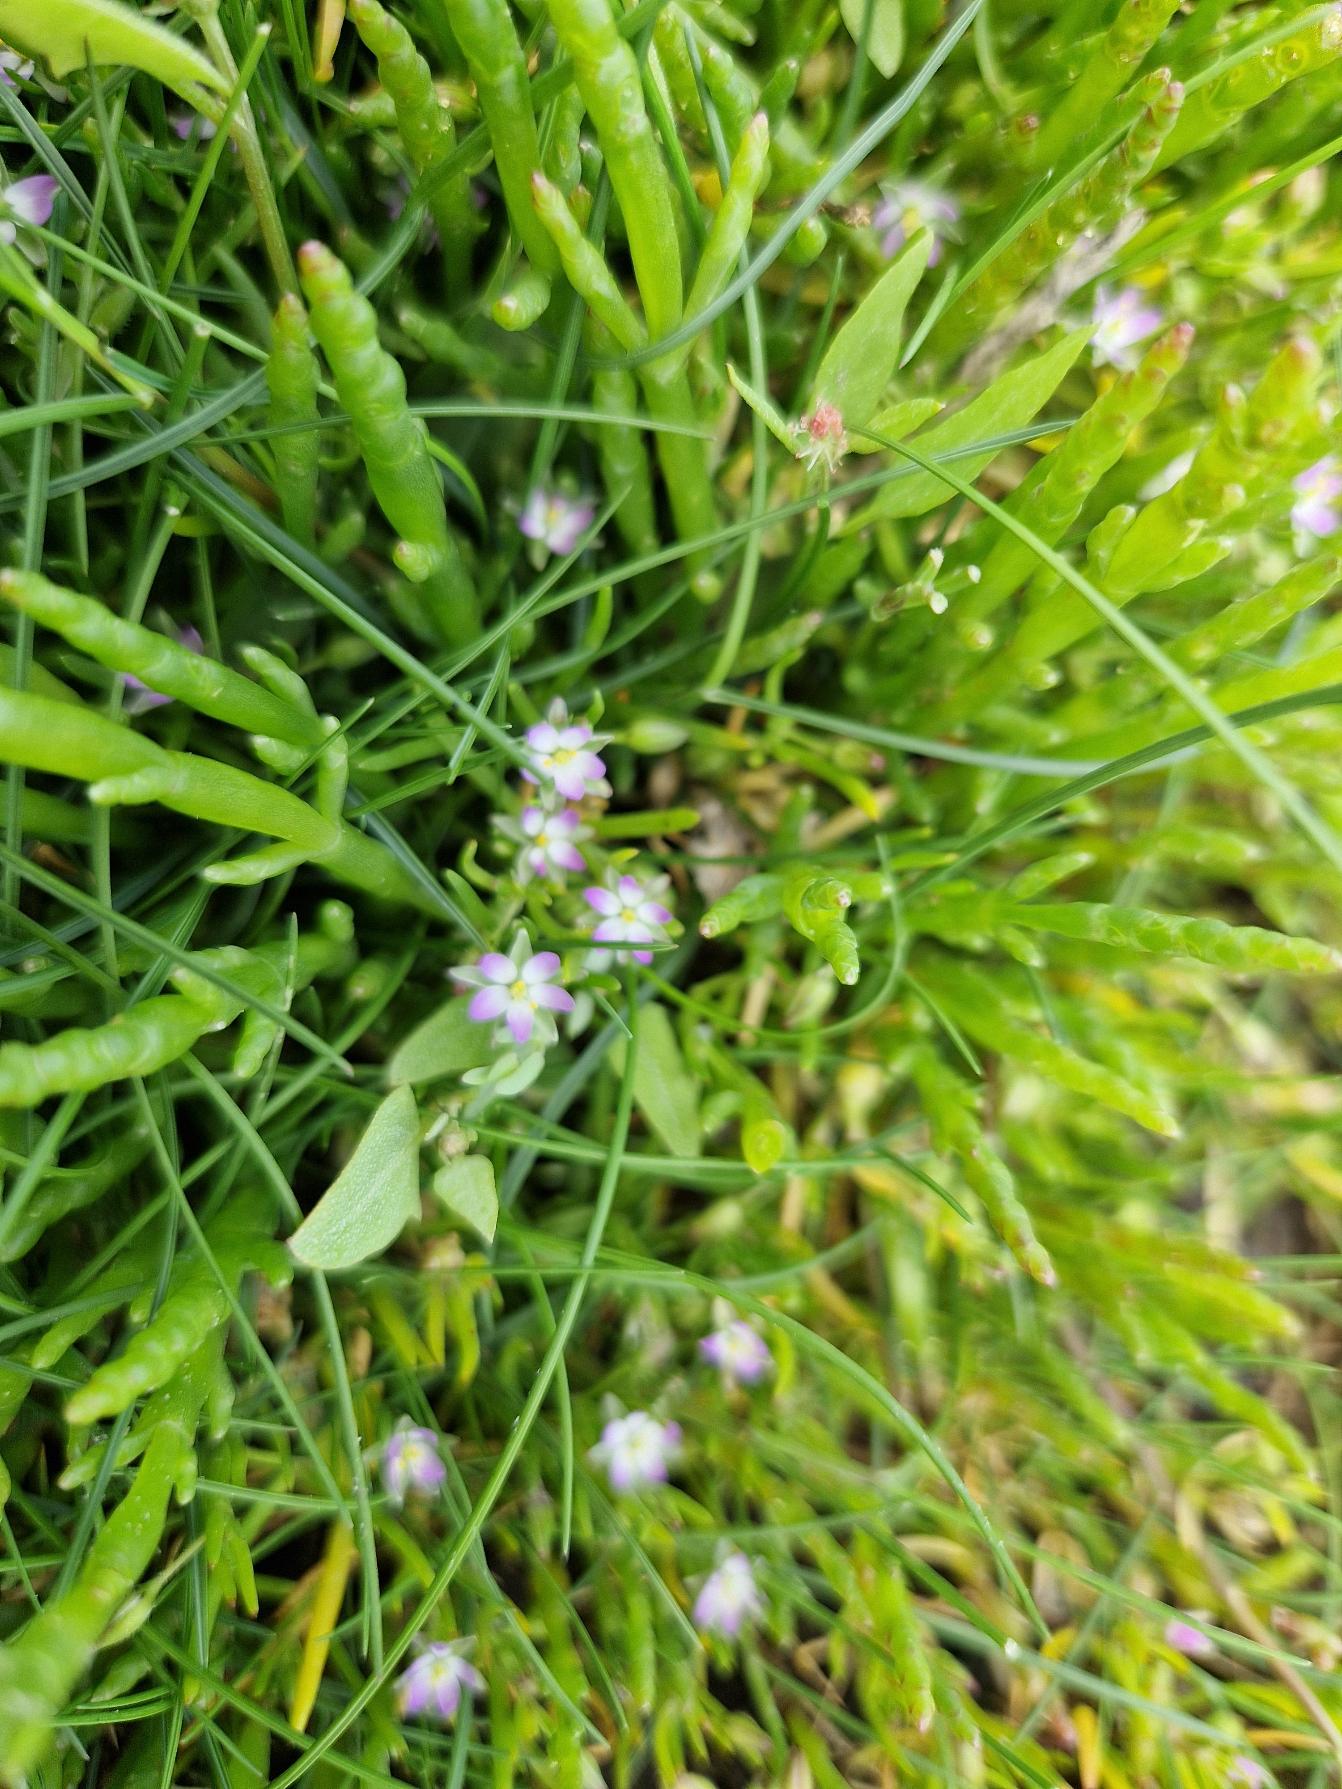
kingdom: Plantae
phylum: Tracheophyta
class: Magnoliopsida
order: Caryophyllales
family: Caryophyllaceae
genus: Spergularia
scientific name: Spergularia marina
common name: Kødet hindeknæ
